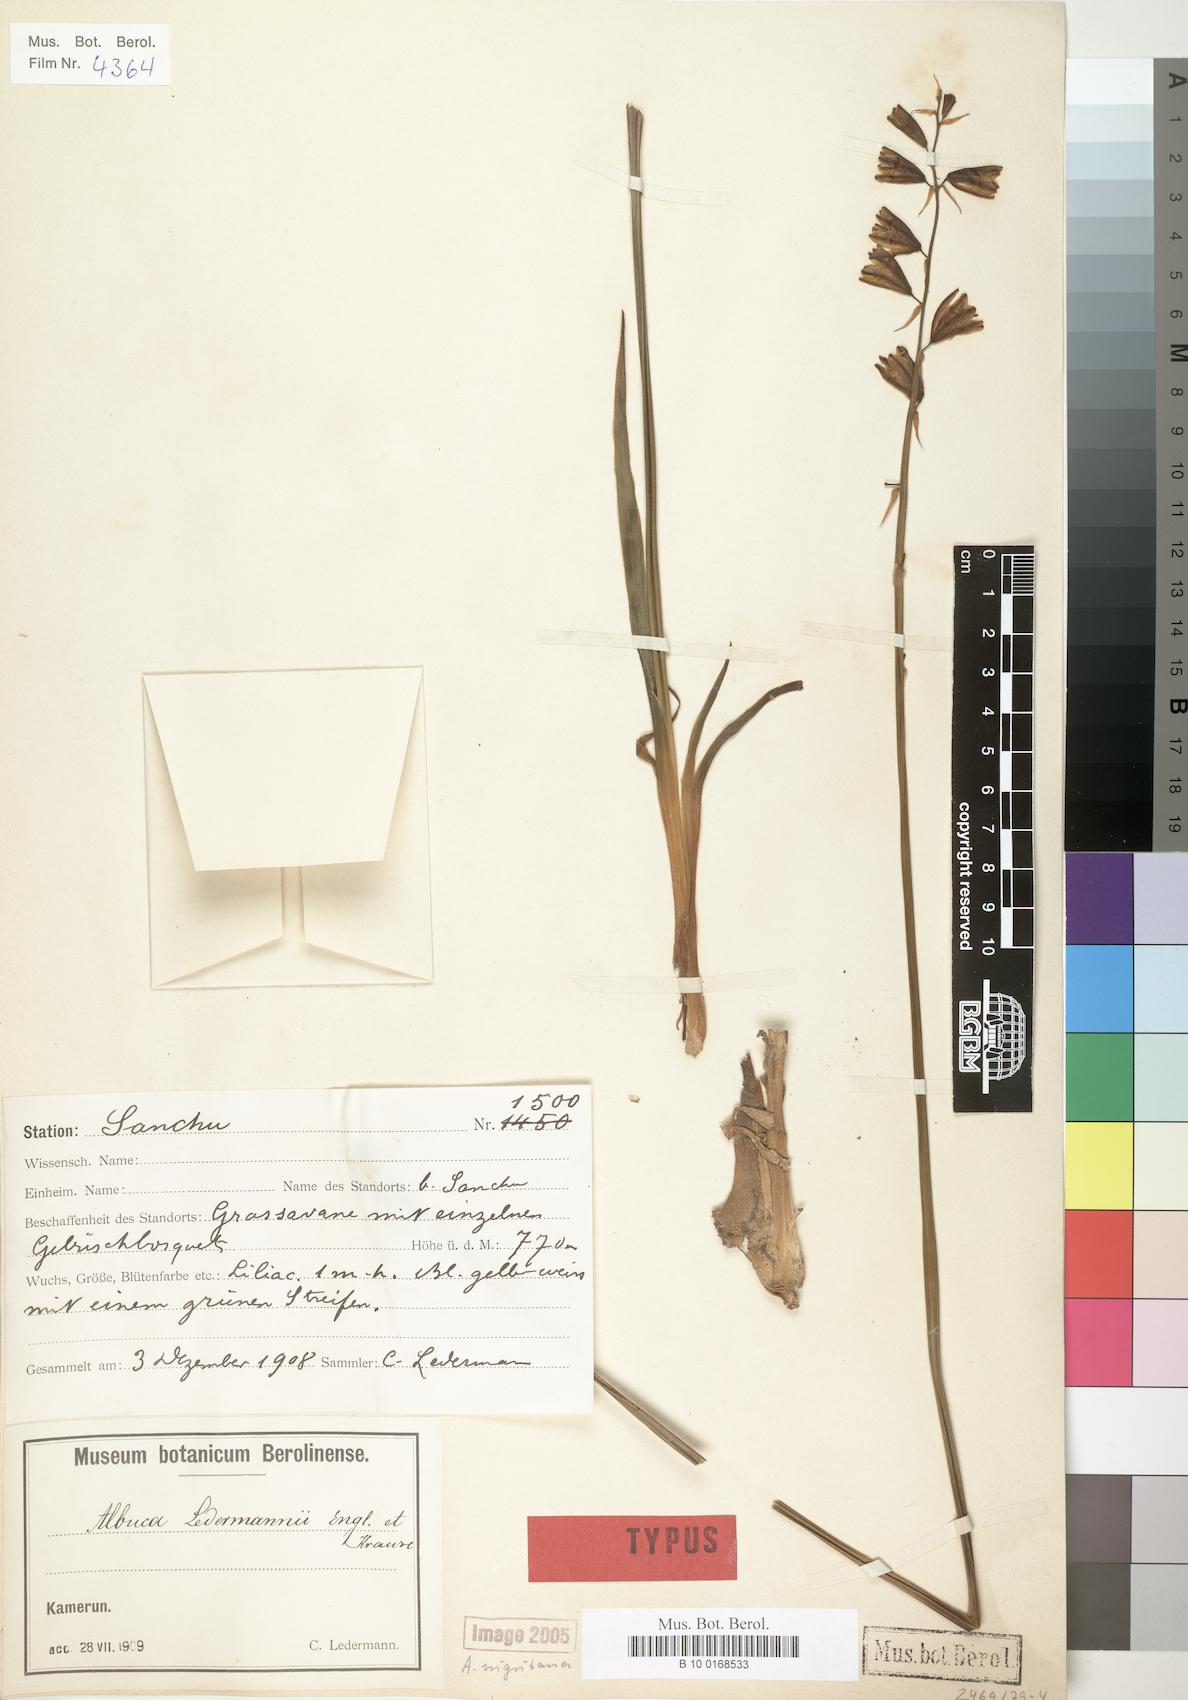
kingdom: Plantae
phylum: Tracheophyta
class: Liliopsida
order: Asparagales
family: Asparagaceae
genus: Albuca
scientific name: Albuca nigritana
